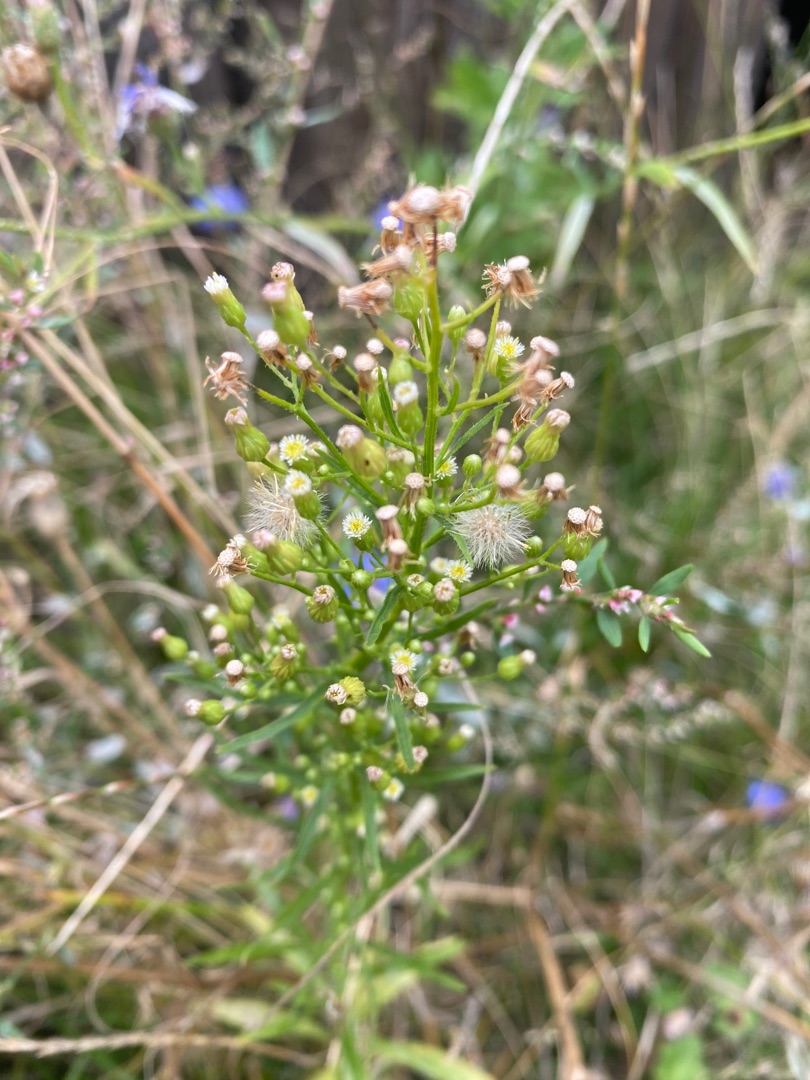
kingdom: Plantae
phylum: Tracheophyta
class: Magnoliopsida
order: Asterales
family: Asteraceae
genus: Erigeron
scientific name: Erigeron canadensis
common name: Kanadisk bakkestjerne
